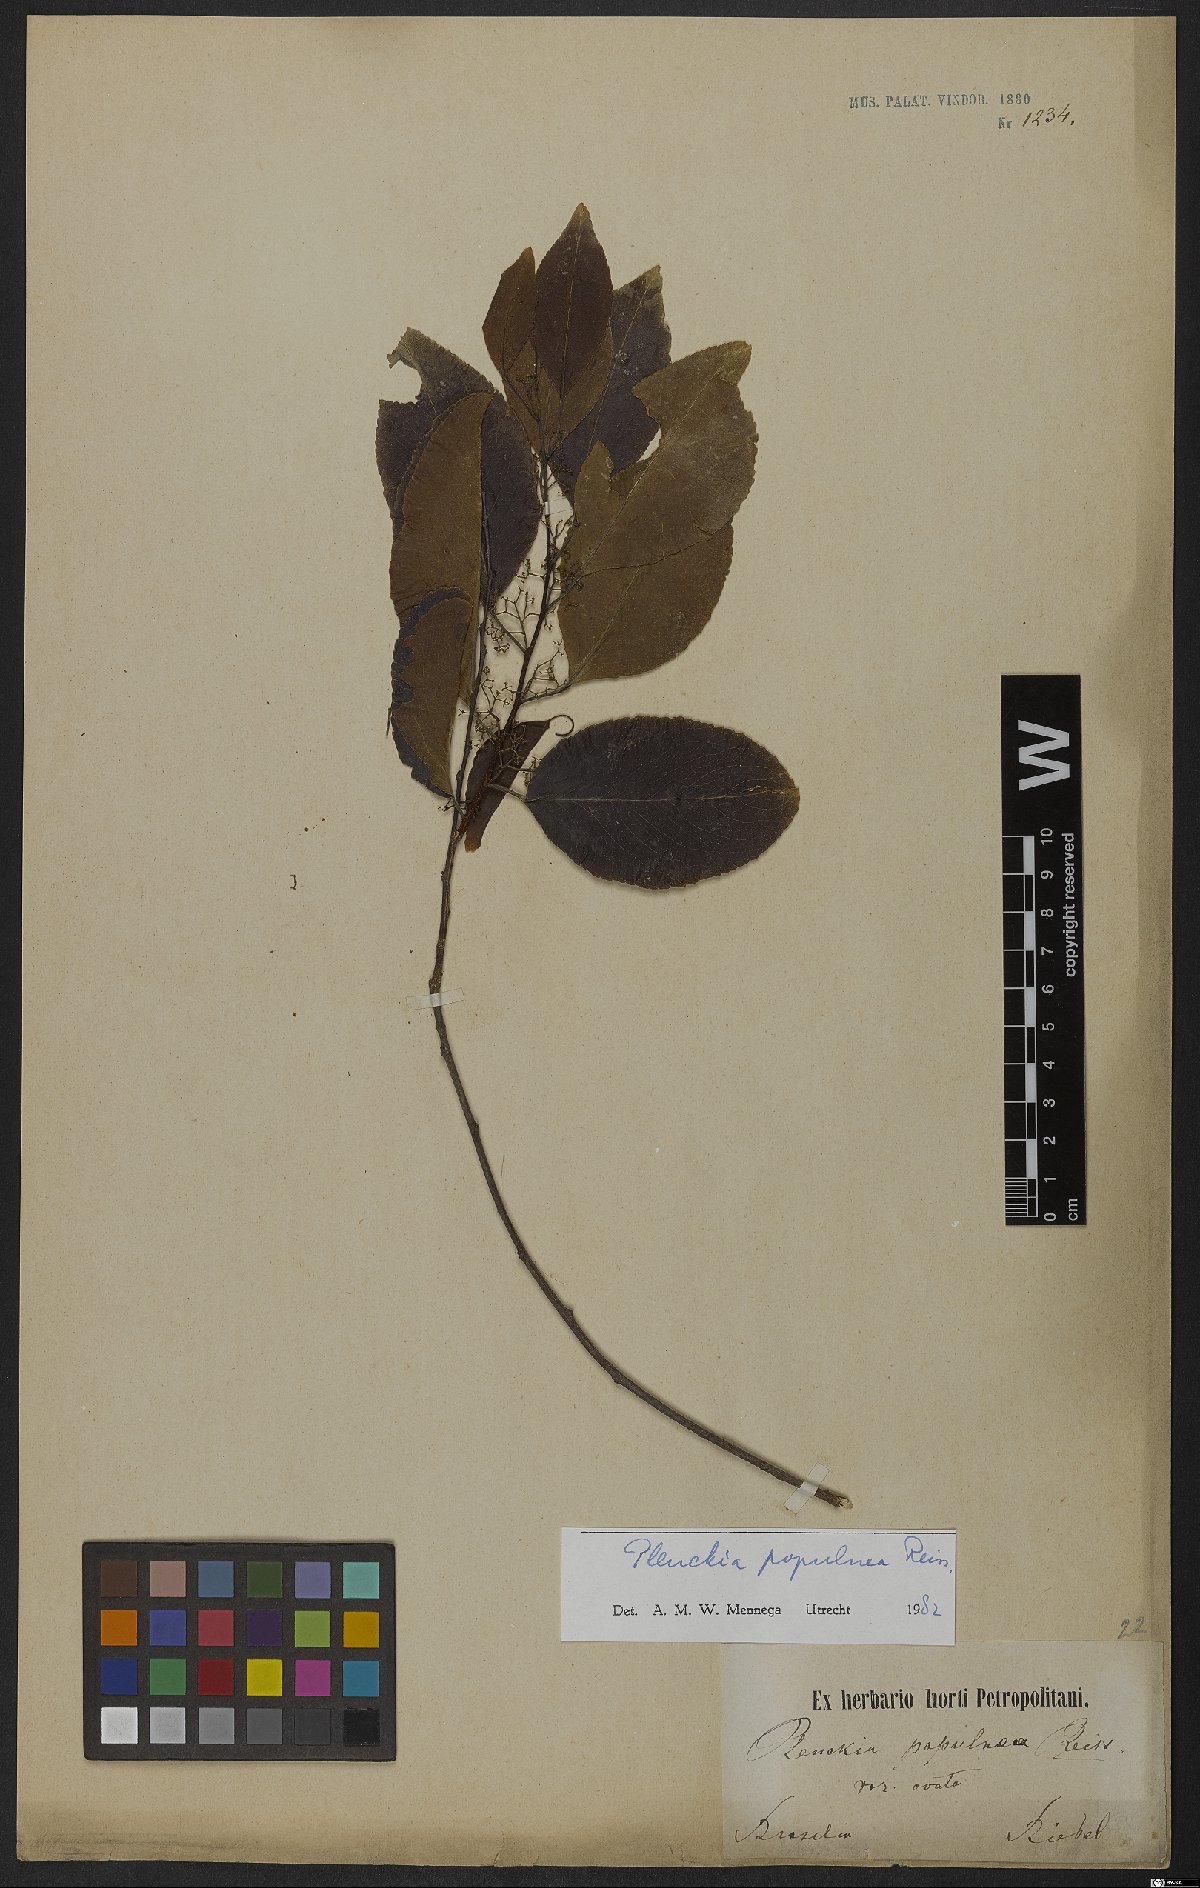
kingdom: Plantae
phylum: Tracheophyta
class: Magnoliopsida
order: Celastrales
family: Celastraceae
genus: Plenckia
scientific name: Plenckia populnea
